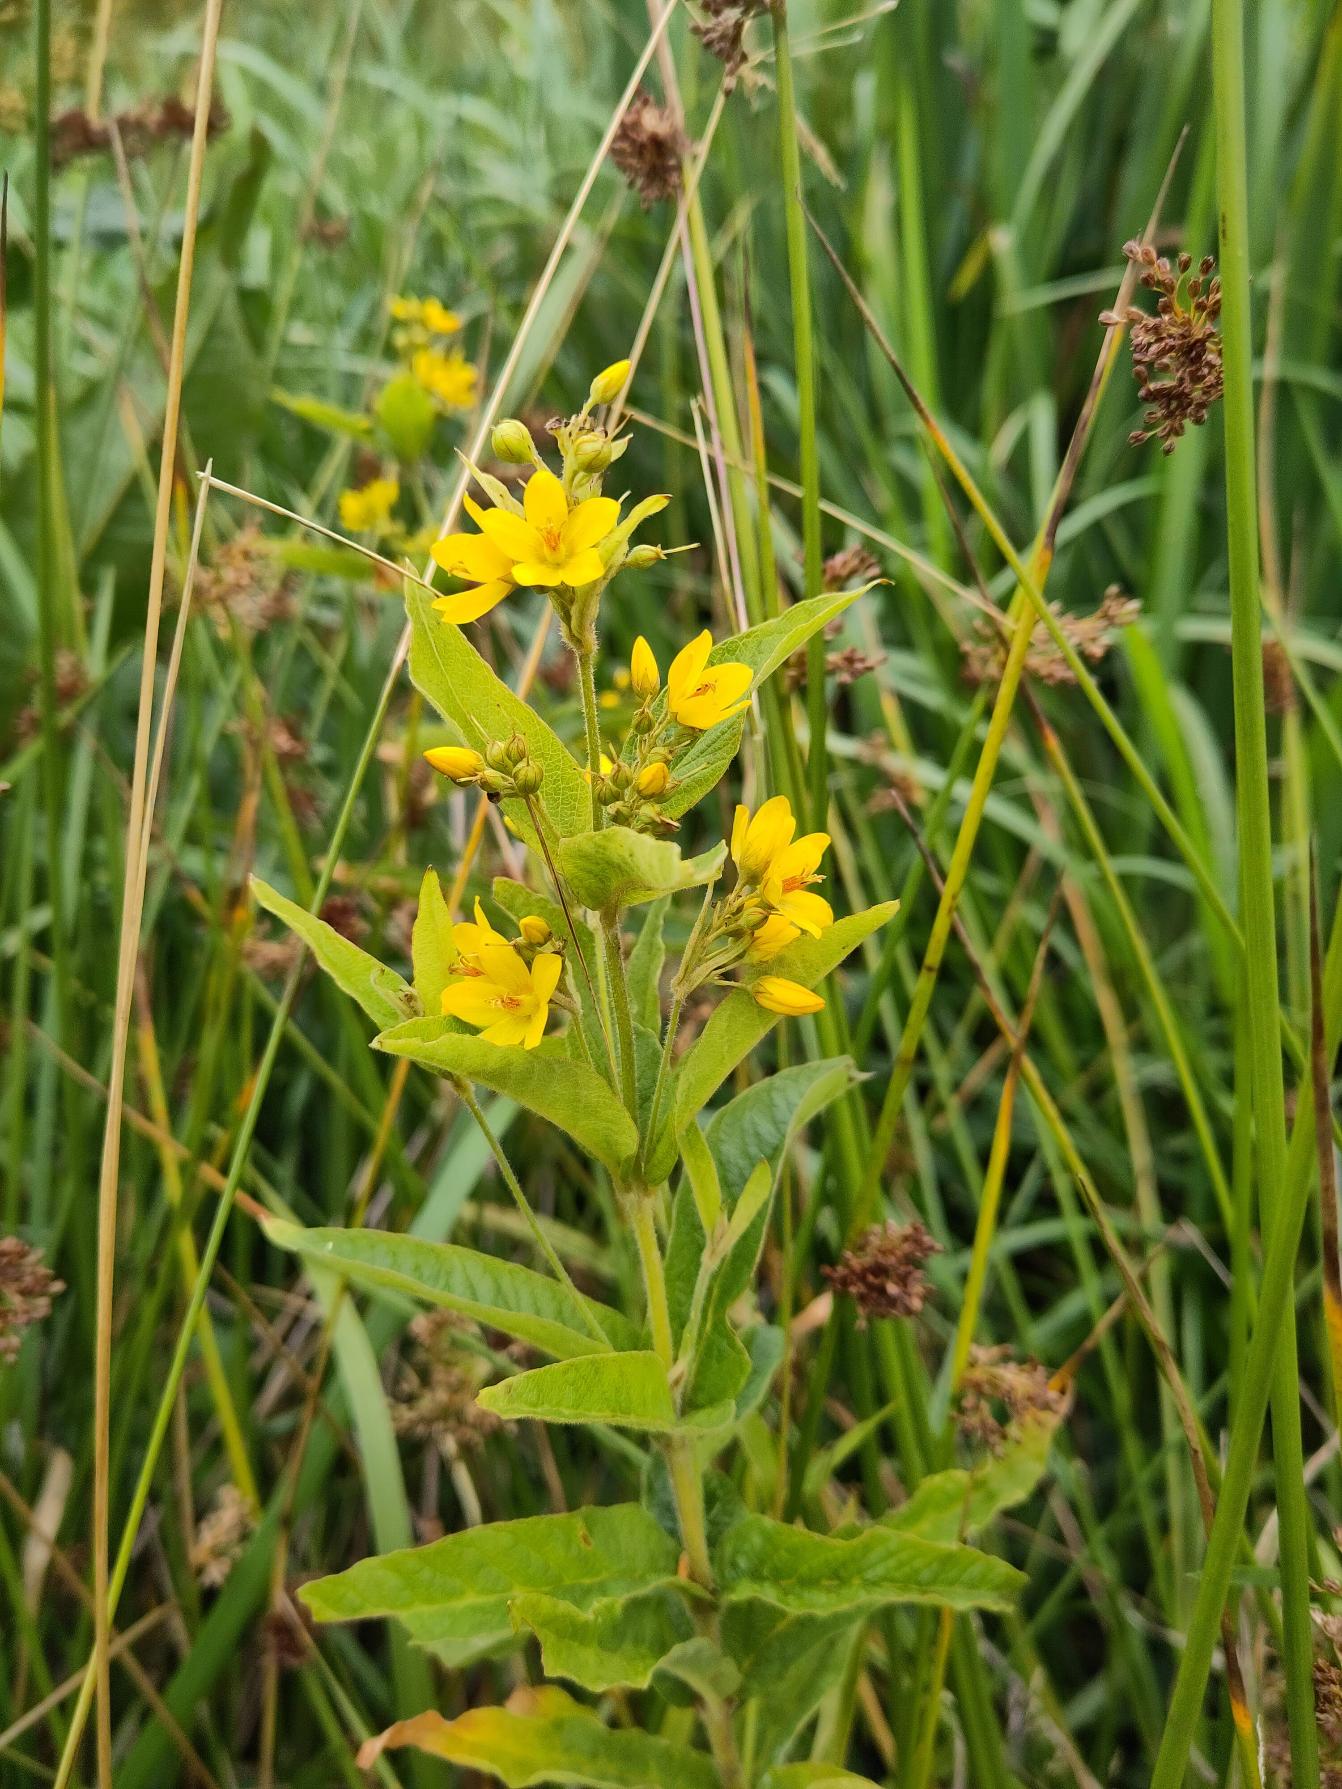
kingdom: Plantae
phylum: Tracheophyta
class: Magnoliopsida
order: Ericales
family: Primulaceae
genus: Lysimachia
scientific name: Lysimachia vulgaris
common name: Almindelig fredløs
